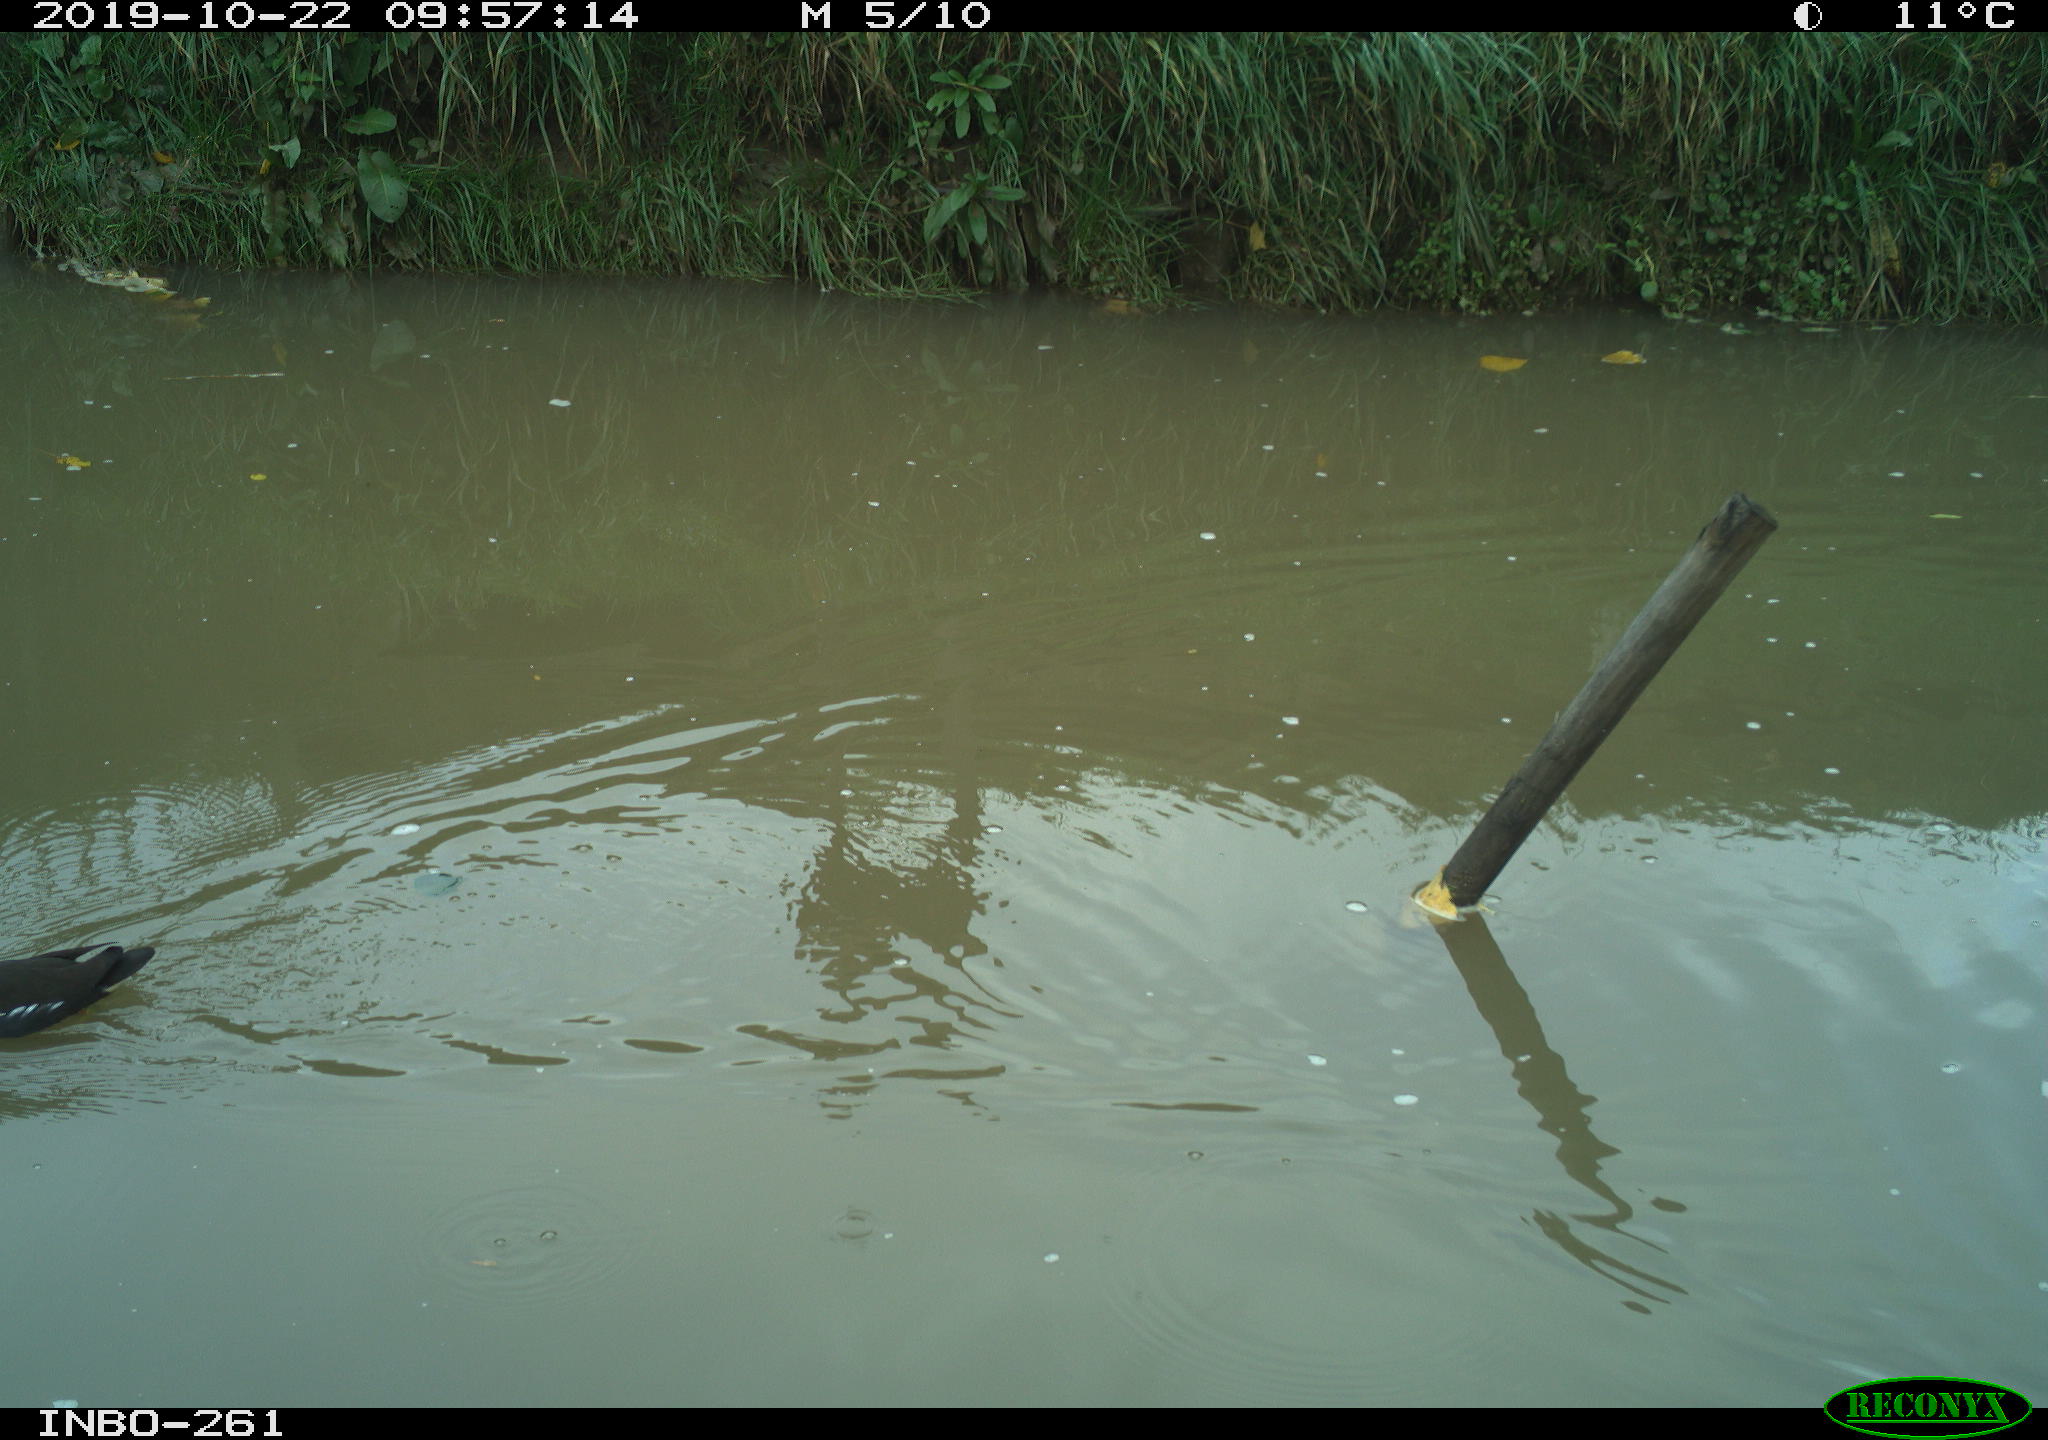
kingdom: Animalia
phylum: Chordata
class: Aves
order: Gruiformes
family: Rallidae
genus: Gallinula
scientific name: Gallinula chloropus
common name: Common moorhen
